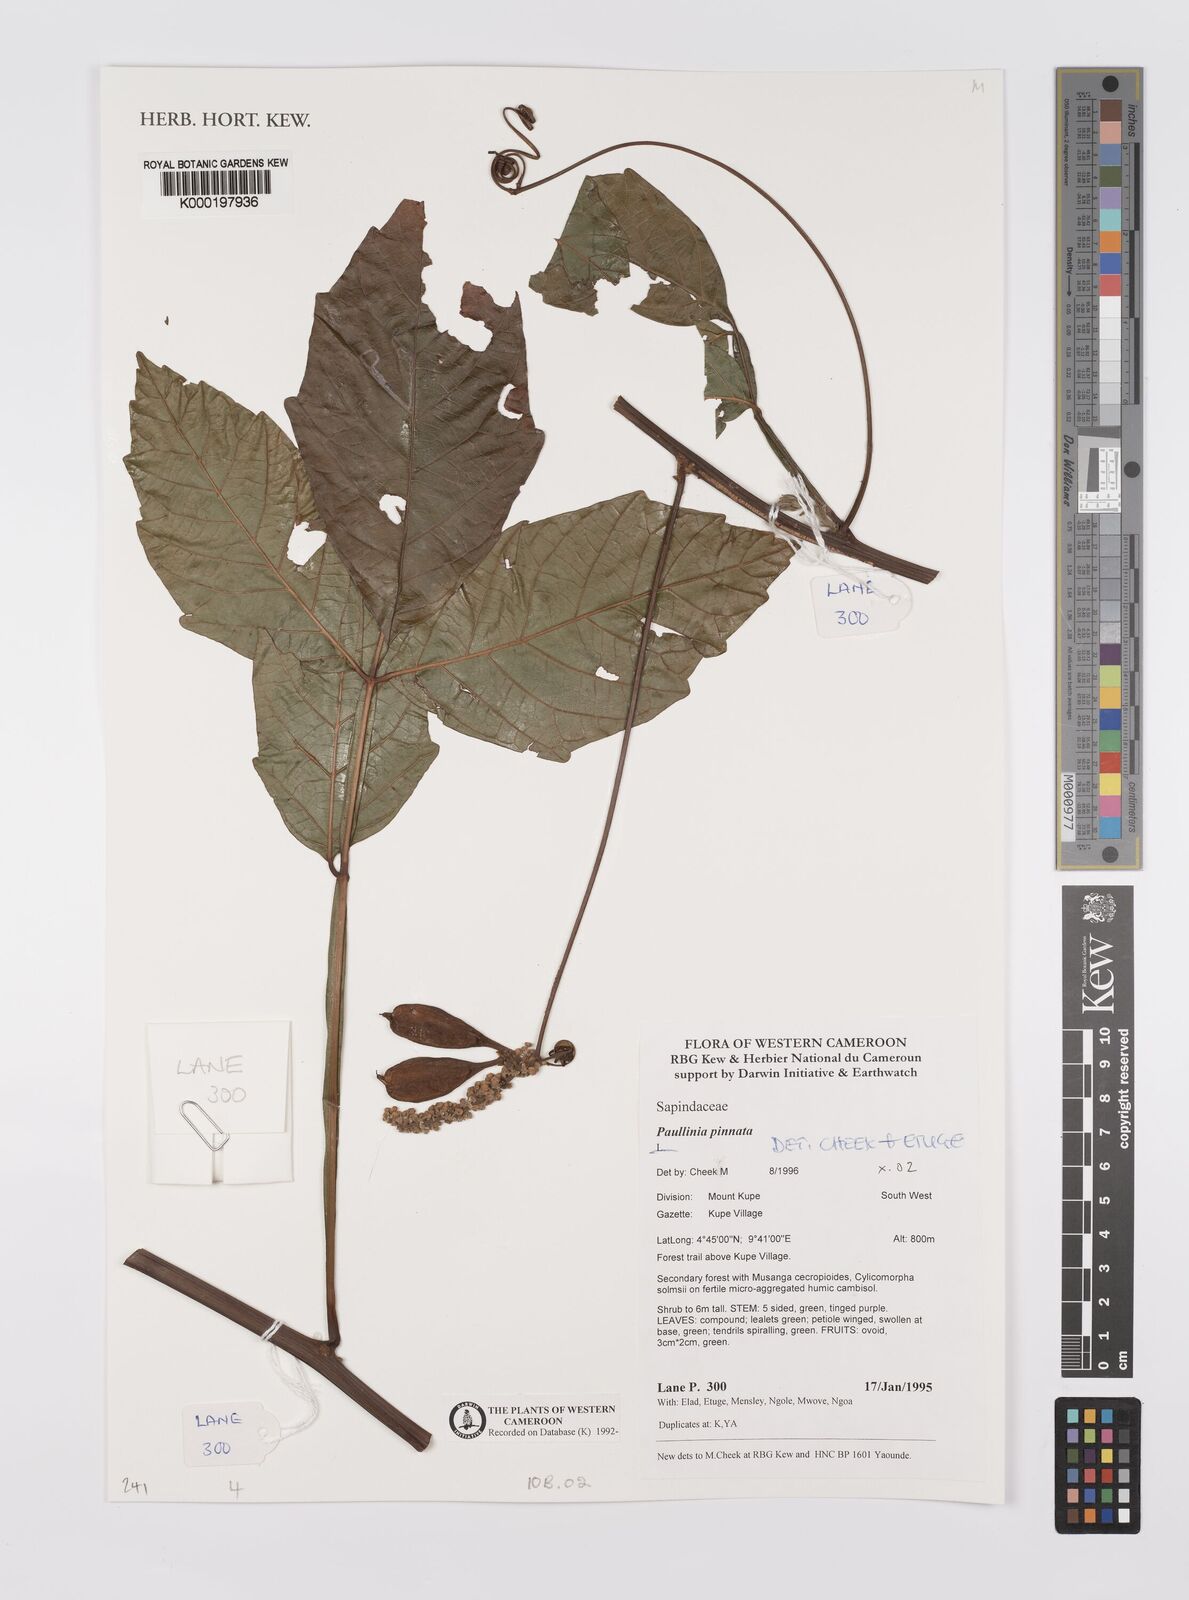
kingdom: Plantae
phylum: Tracheophyta
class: Magnoliopsida
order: Sapindales
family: Sapindaceae
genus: Paullinia
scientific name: Paullinia pinnata
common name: Barbasco
